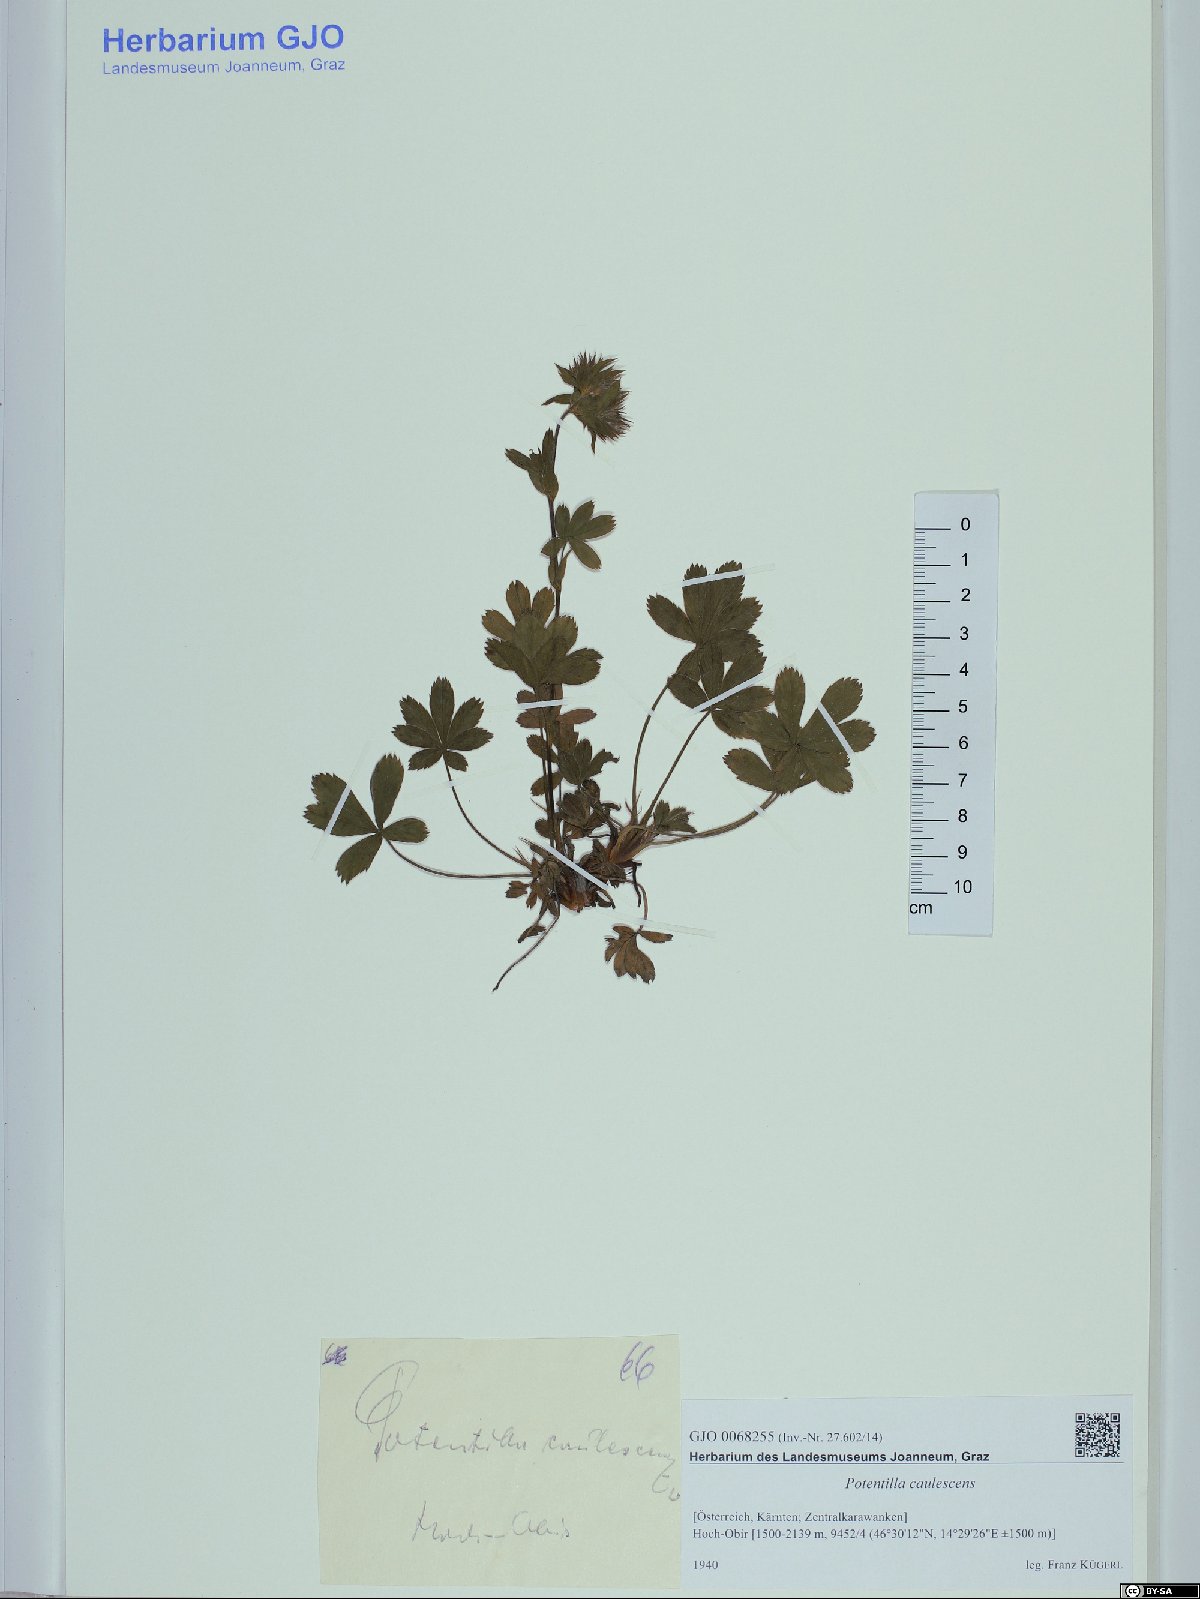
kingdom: Plantae
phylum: Tracheophyta
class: Magnoliopsida
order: Rosales
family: Rosaceae
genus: Potentilla
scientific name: Potentilla caulescens
